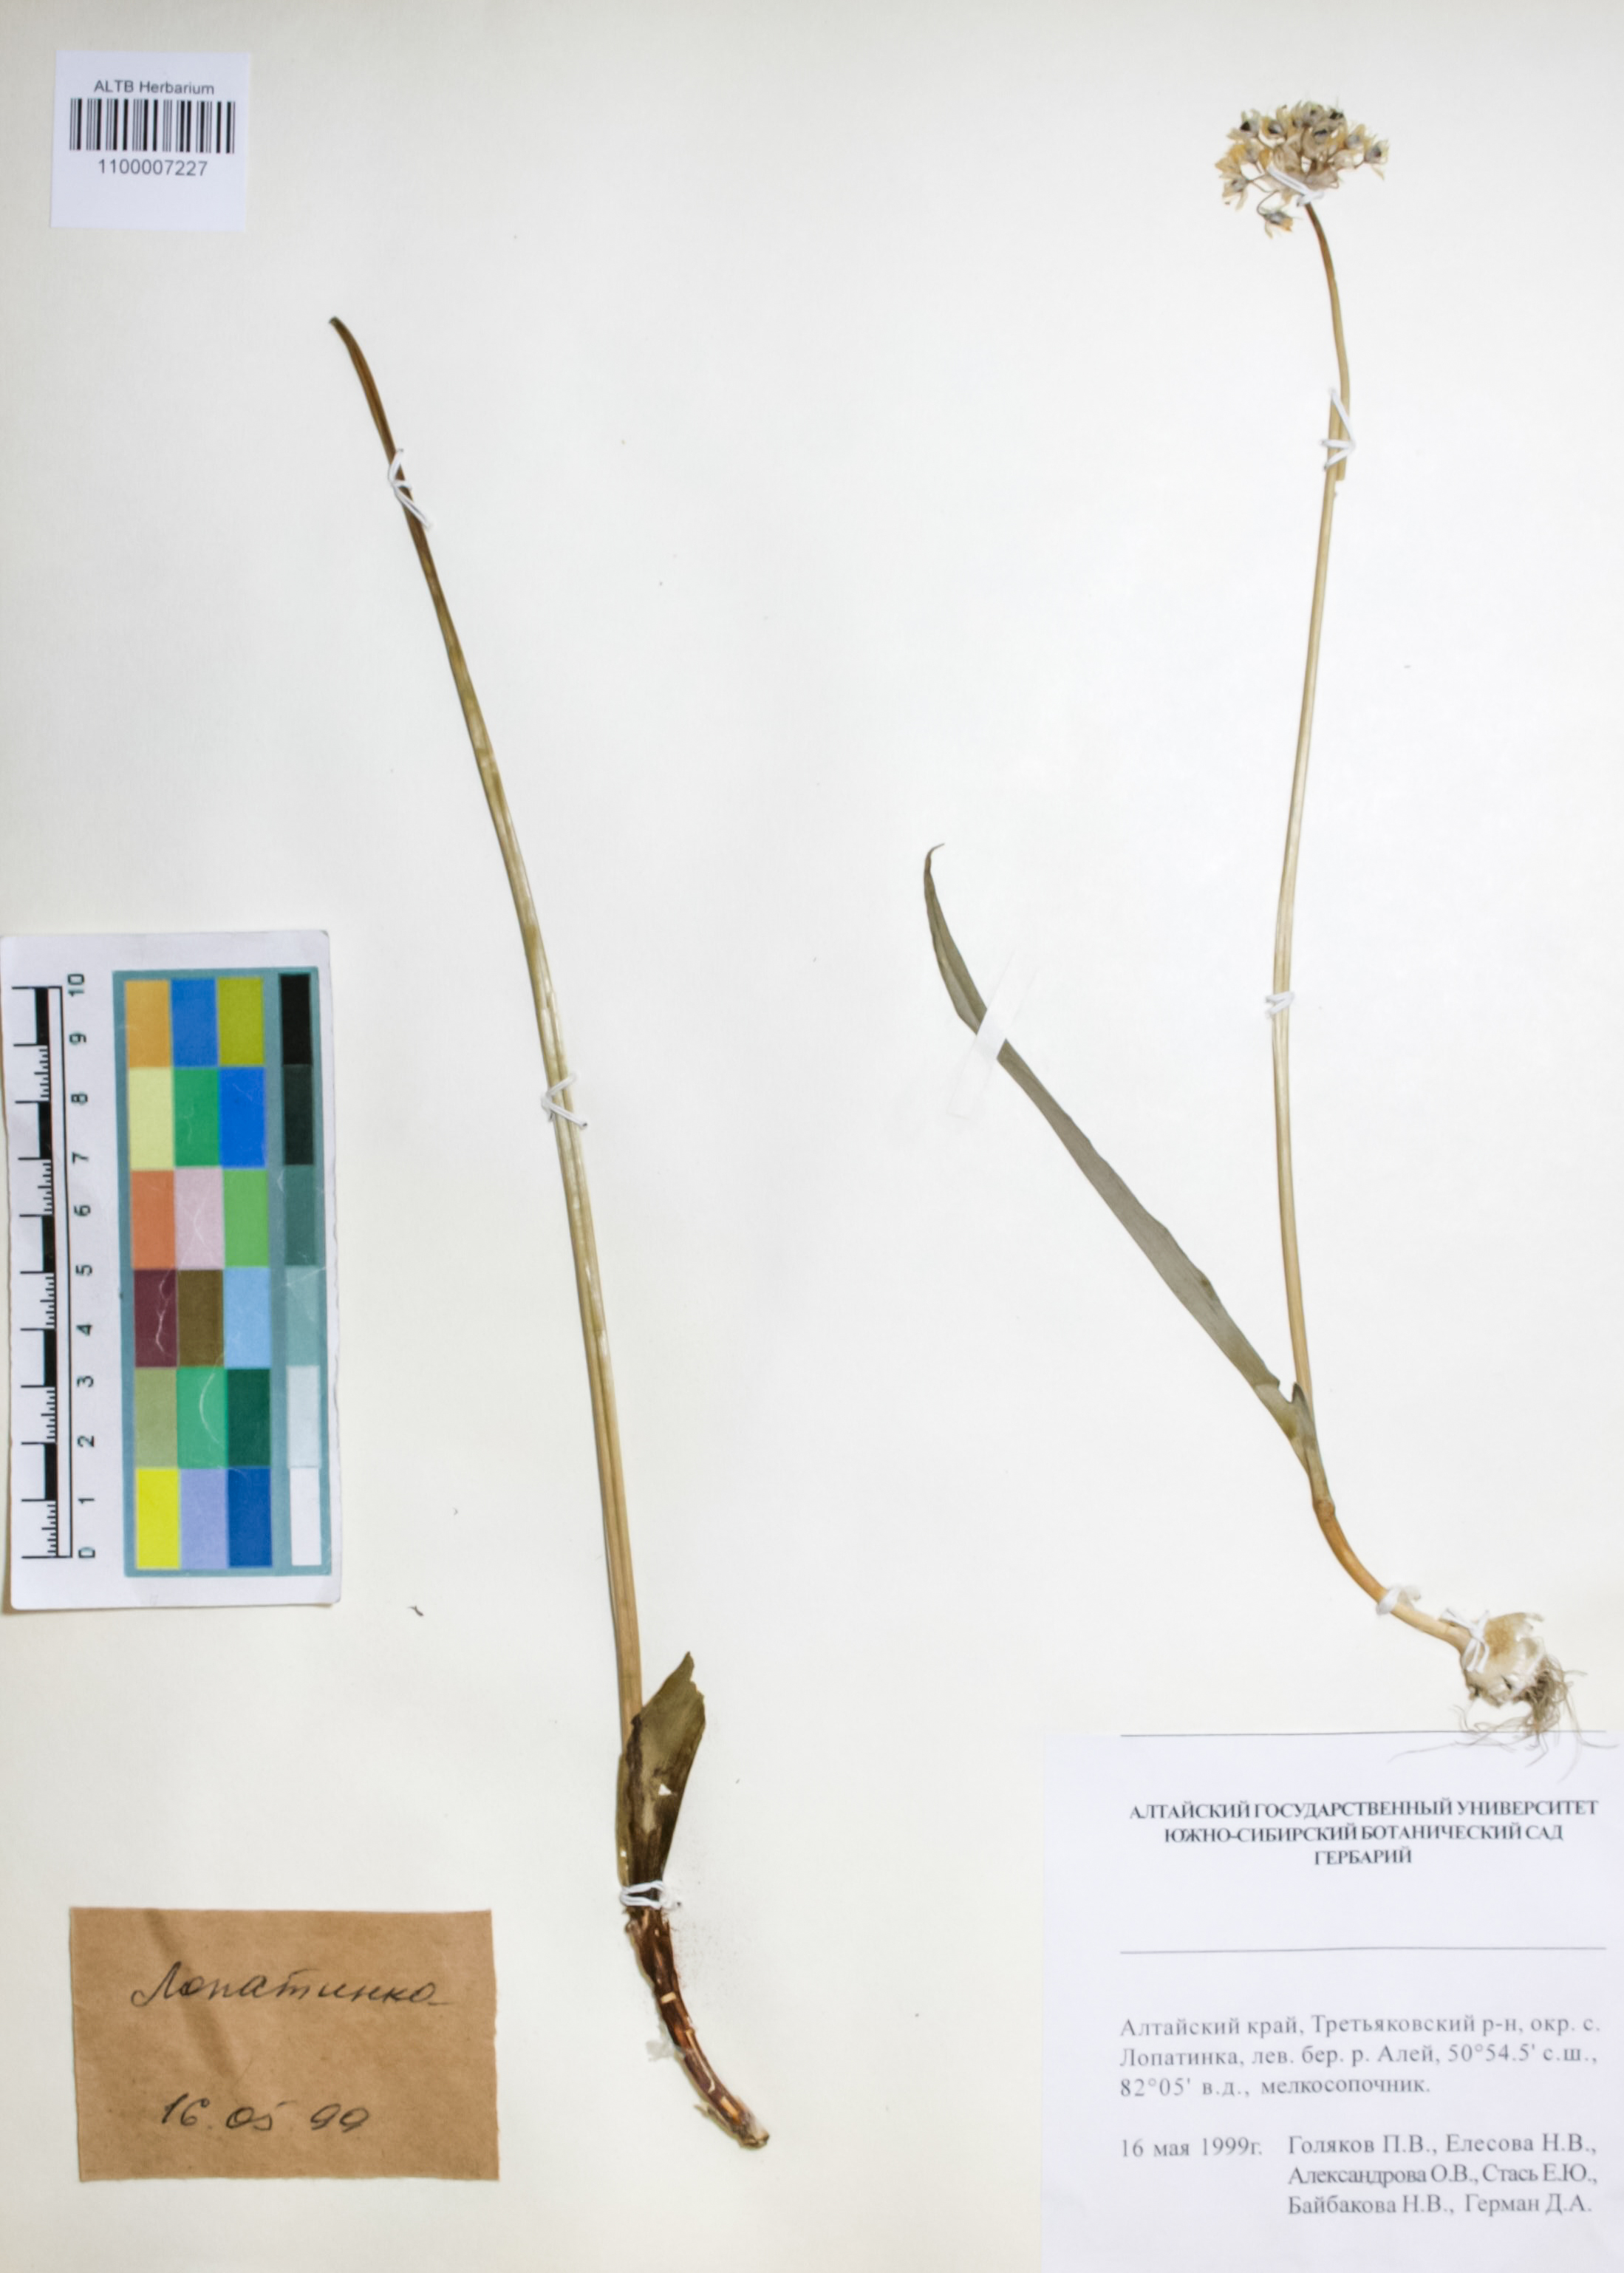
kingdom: Plantae
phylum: Tracheophyta
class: Liliopsida
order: Asparagales
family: Amaryllidaceae
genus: Allium
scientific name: Allium altaicum
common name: Altai onion
